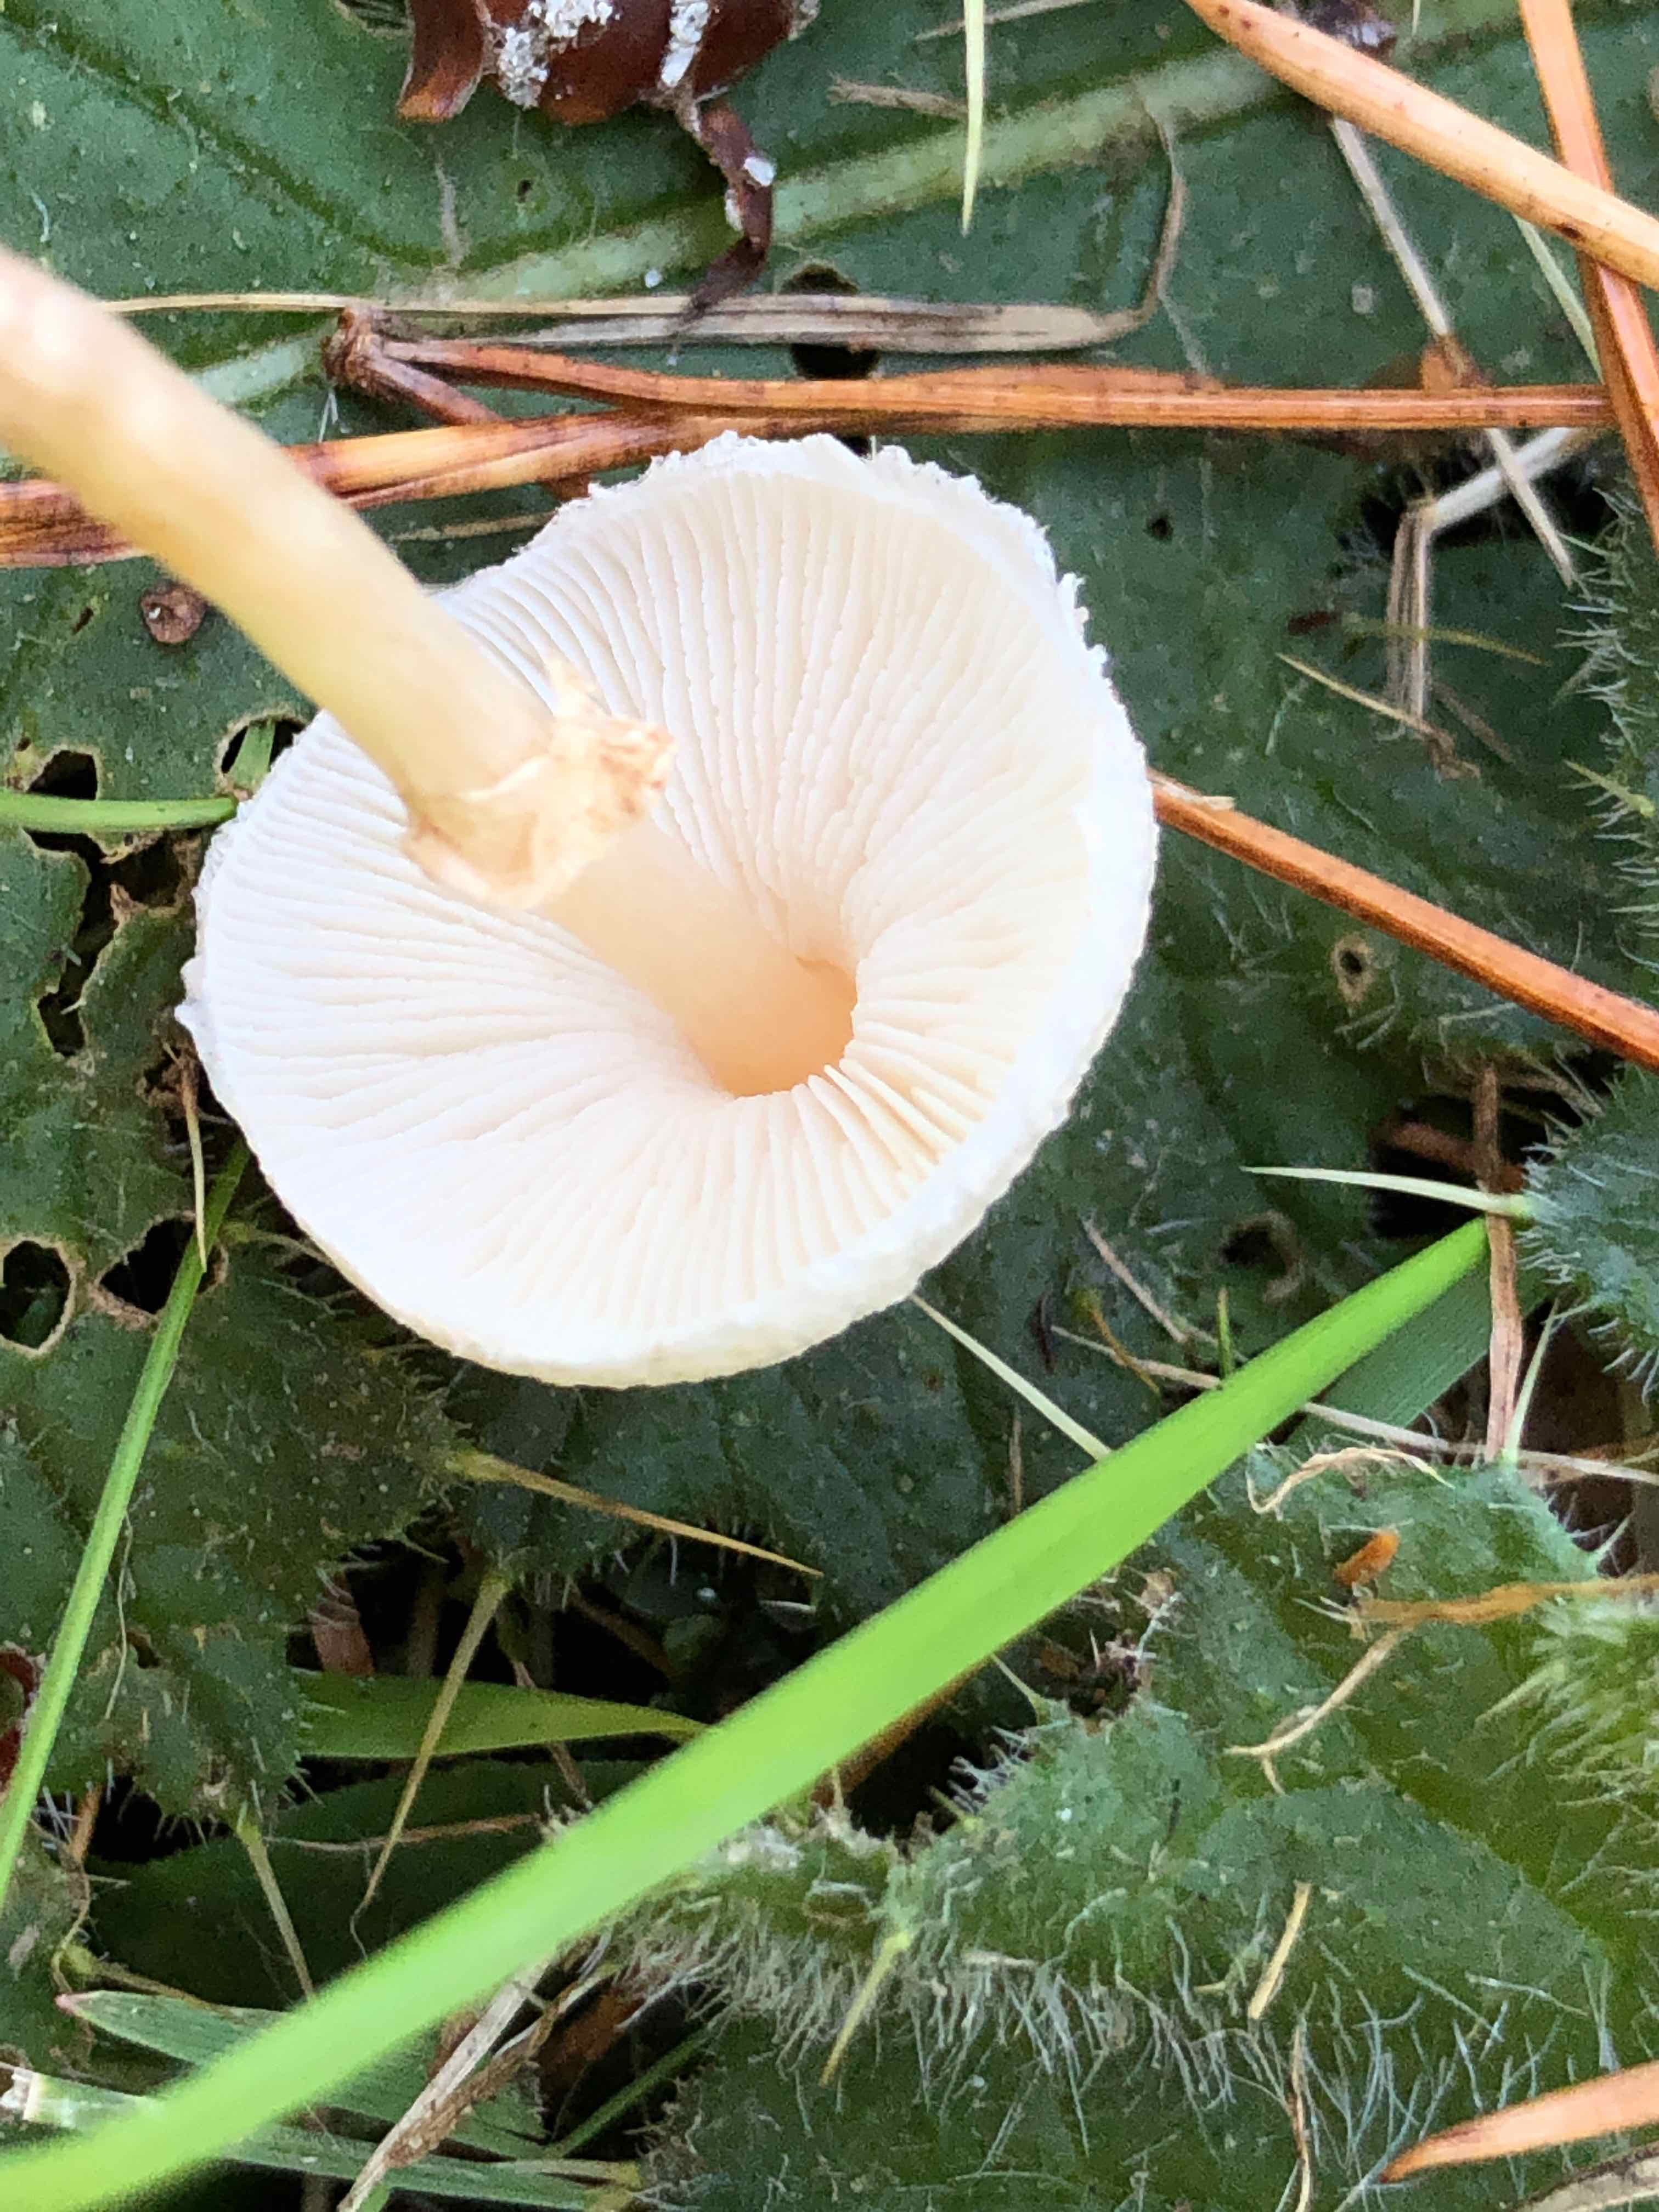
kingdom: Fungi
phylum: Basidiomycota
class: Agaricomycetes
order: Agaricales
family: Agaricaceae
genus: Lepiota
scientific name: Lepiota
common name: parasolhat
